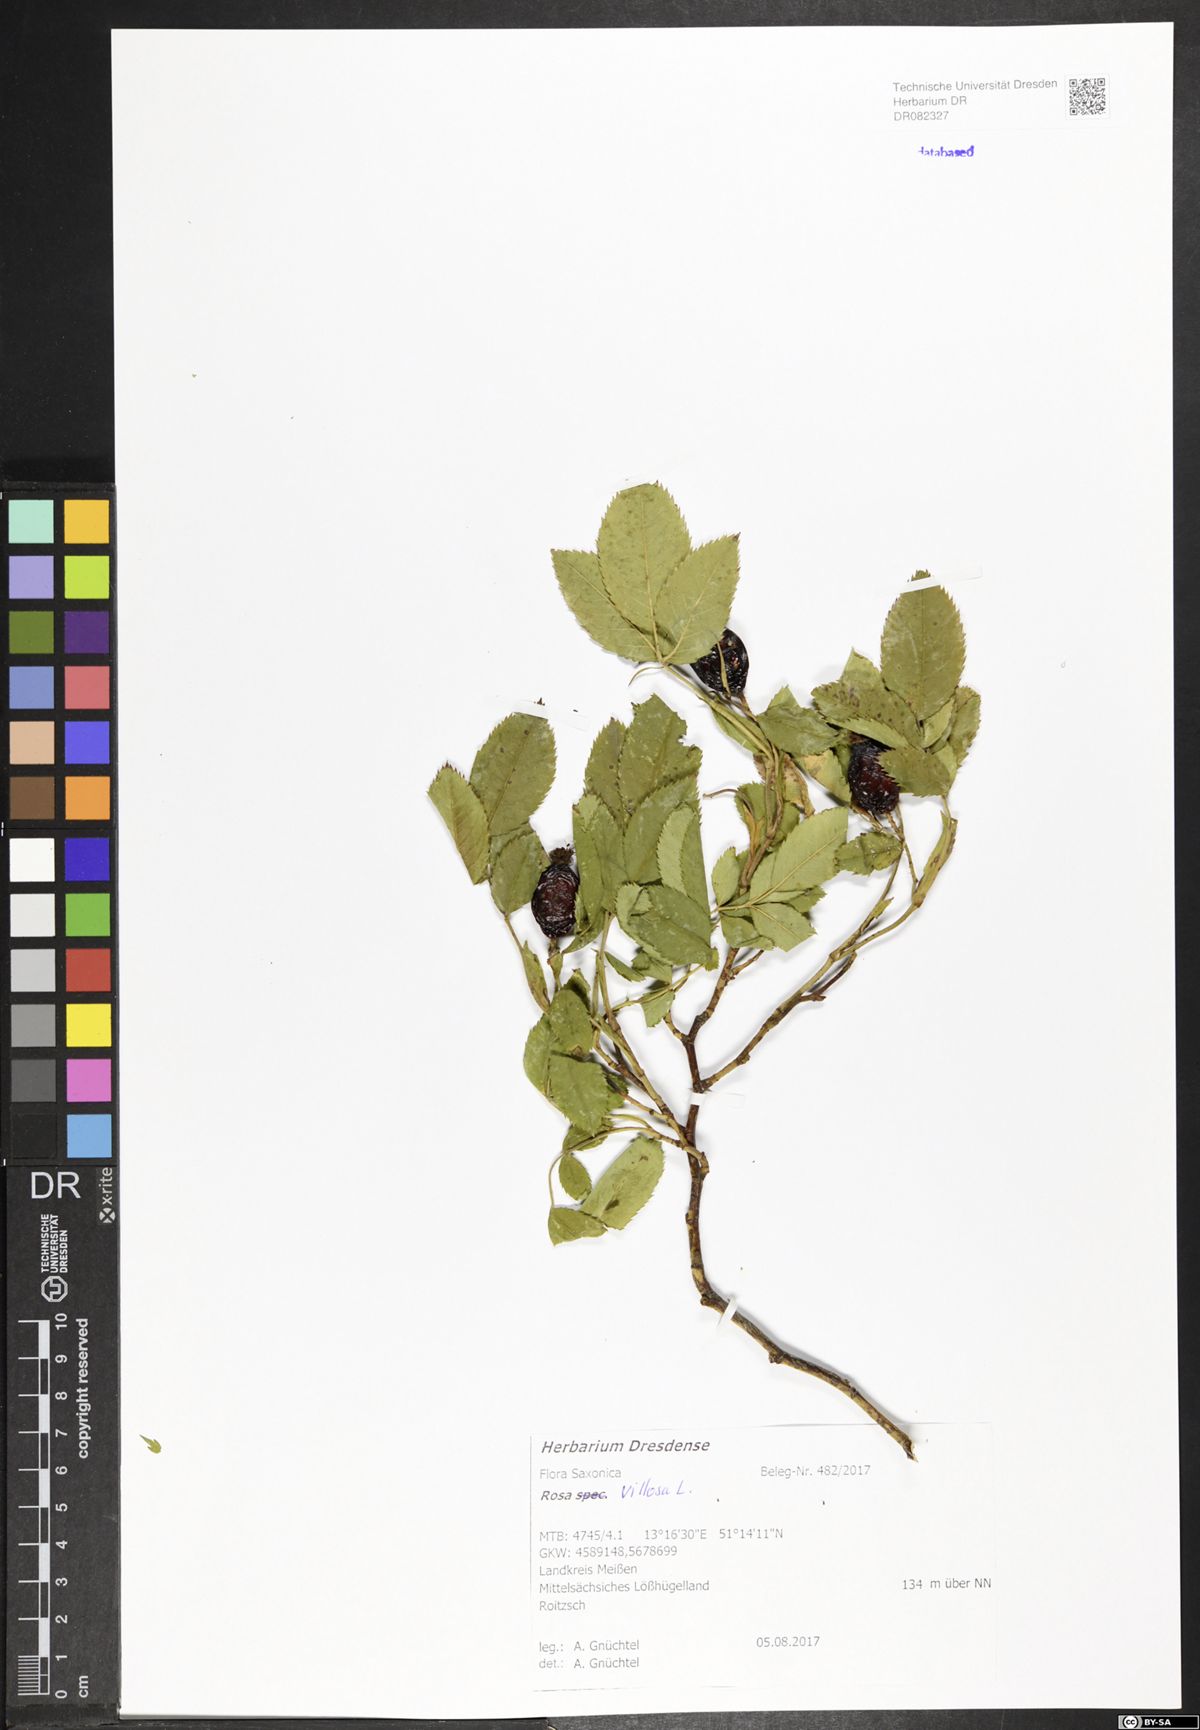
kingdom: Plantae
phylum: Tracheophyta
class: Magnoliopsida
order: Rosales
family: Rosaceae
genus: Rosa
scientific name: Rosa villosa
